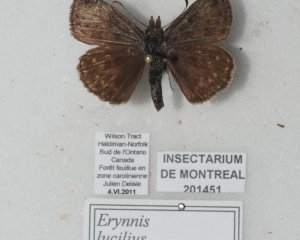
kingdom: Animalia
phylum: Arthropoda
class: Insecta
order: Lepidoptera
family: Hesperiidae
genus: Erynnis
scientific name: Erynnis
